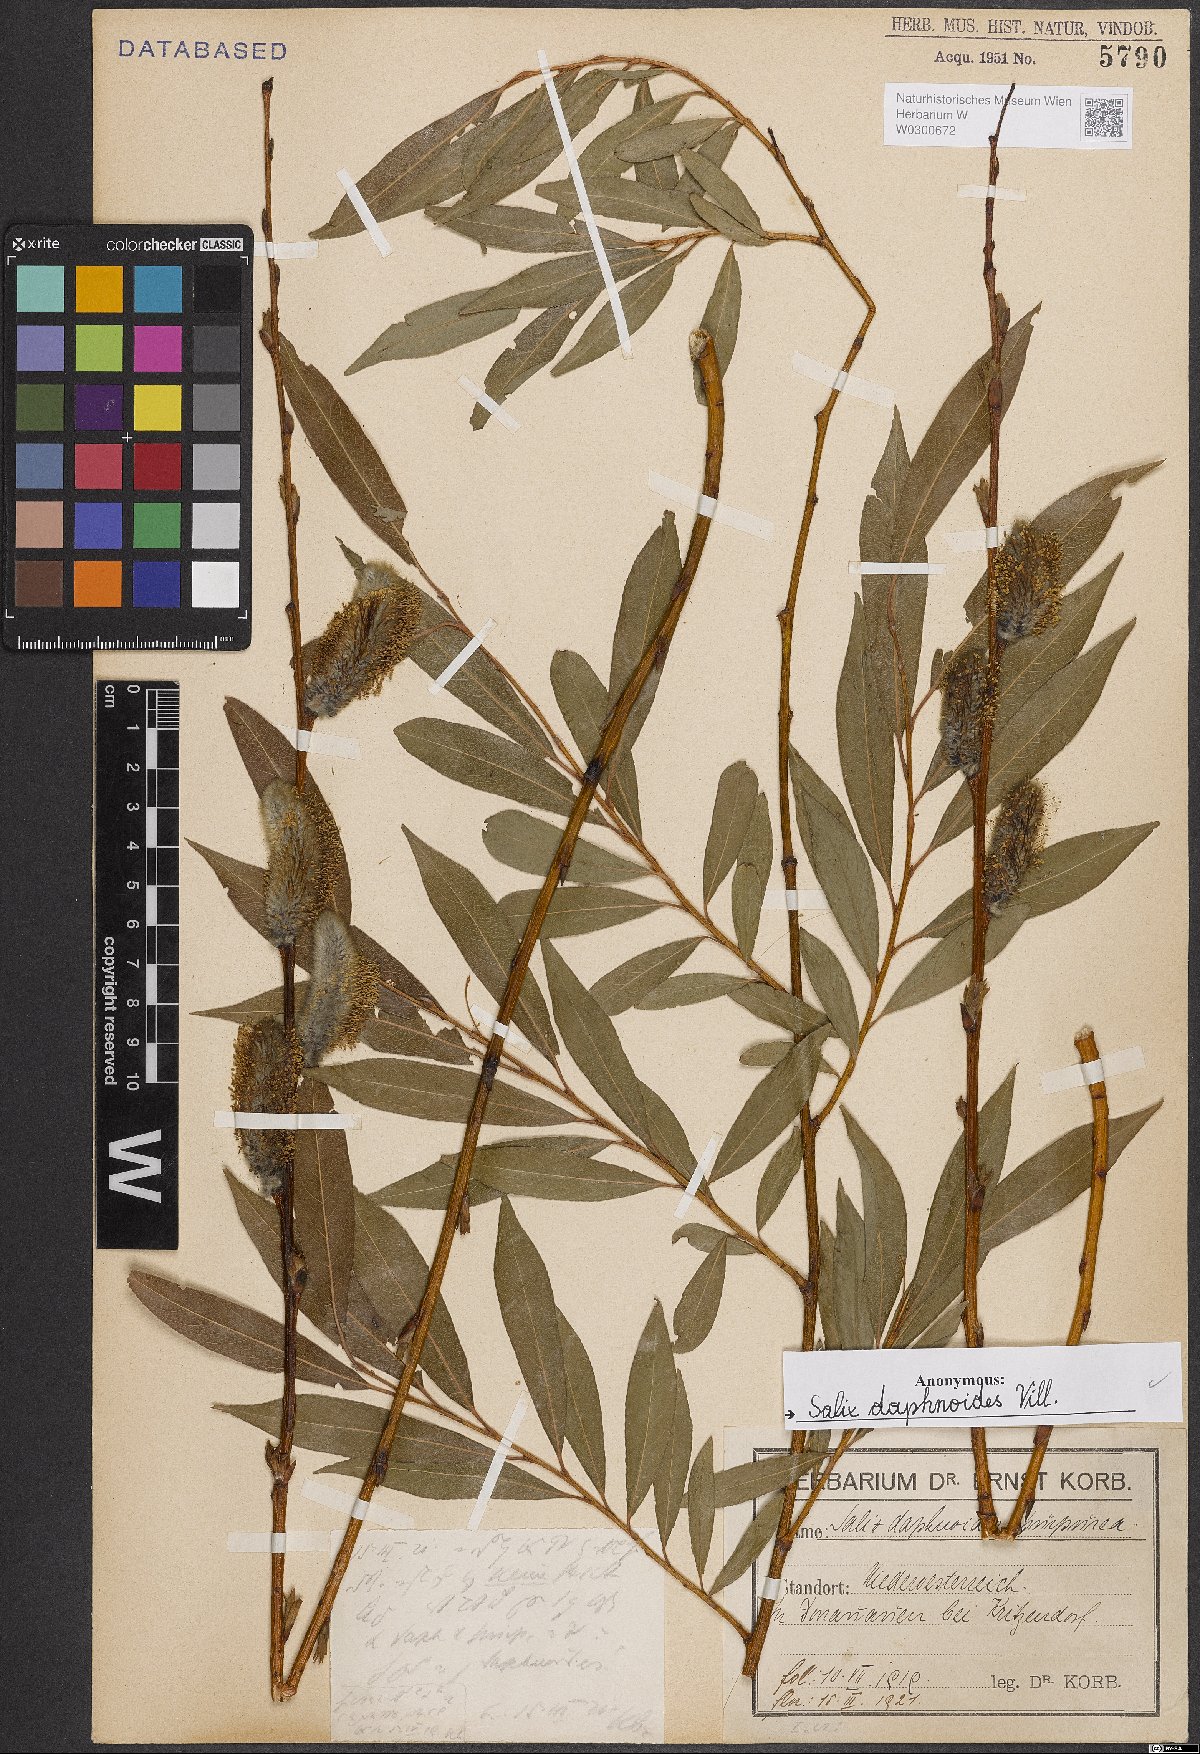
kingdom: Plantae
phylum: Tracheophyta
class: Magnoliopsida
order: Malpighiales
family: Salicaceae
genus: Salix
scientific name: Salix daphnoides
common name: European violet-willow
